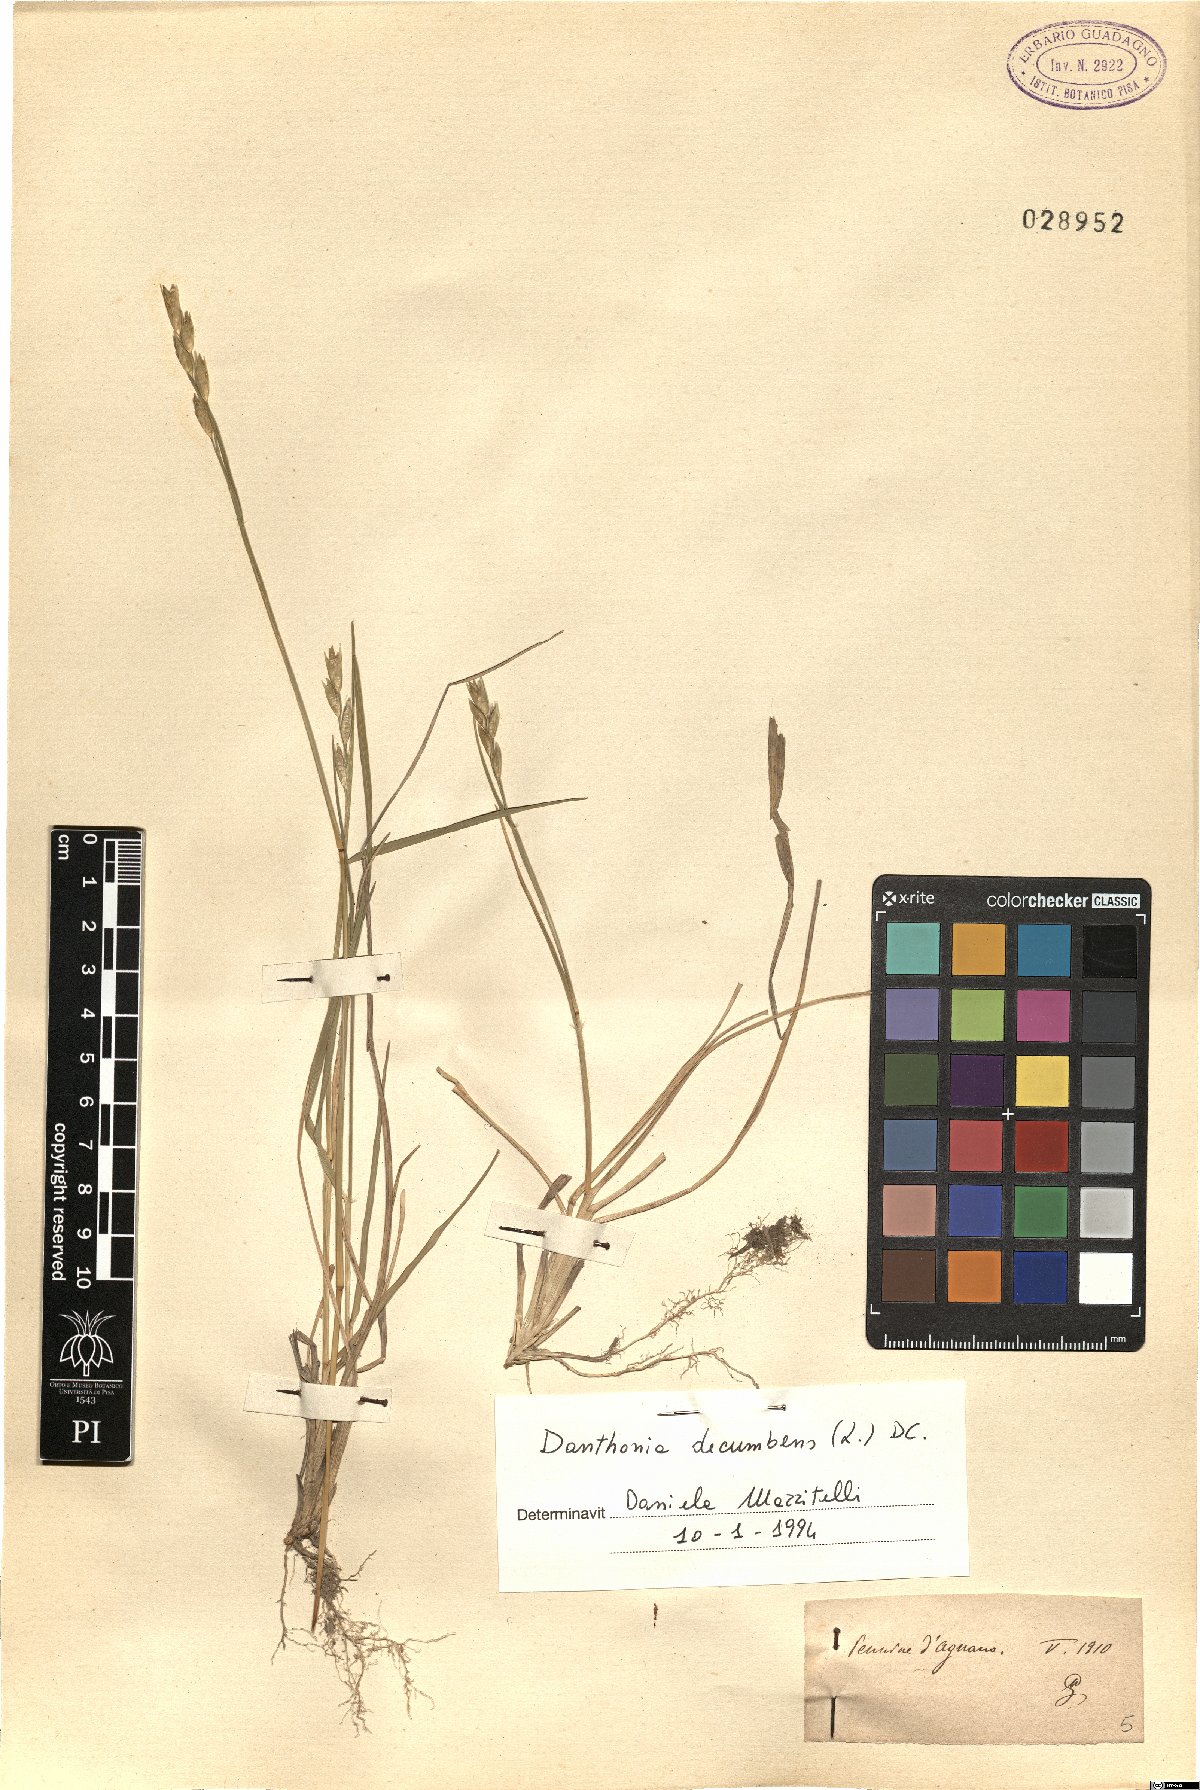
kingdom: Plantae
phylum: Tracheophyta
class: Liliopsida
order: Poales
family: Poaceae
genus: Danthonia
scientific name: Danthonia decumbens
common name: Common heathgrass
